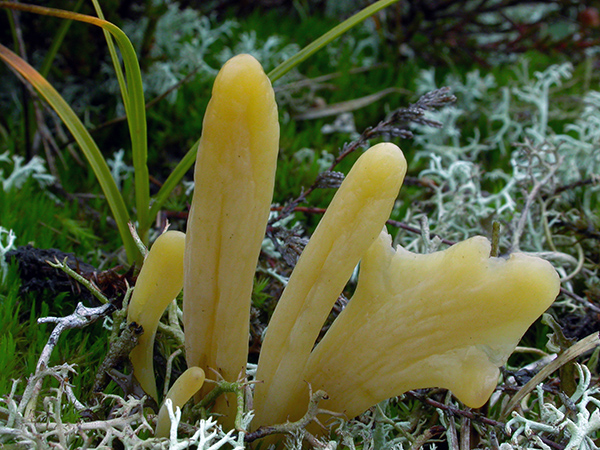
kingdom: Fungi
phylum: Basidiomycota
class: Agaricomycetes
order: Agaricales
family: Clavariaceae
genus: Clavaria
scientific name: Clavaria argillacea
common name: lerfarvet køllesvamp
